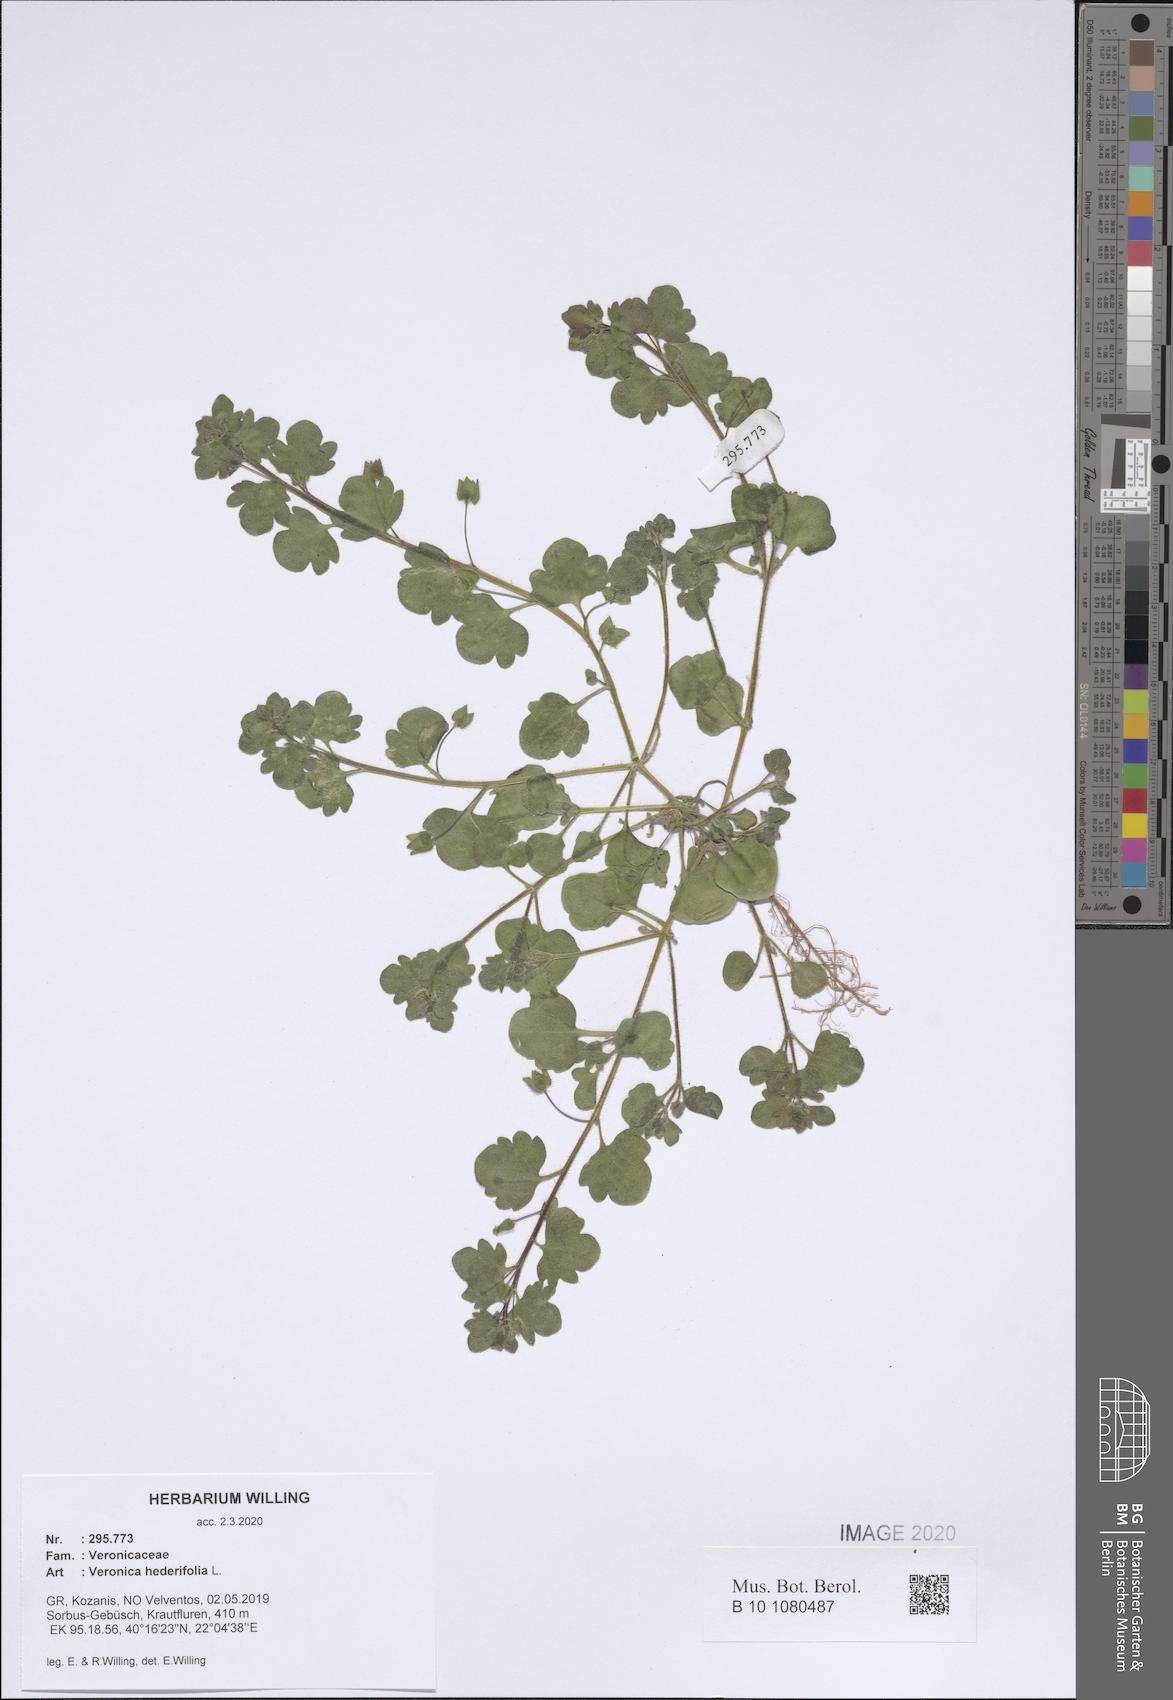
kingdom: Plantae
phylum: Tracheophyta
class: Magnoliopsida
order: Lamiales
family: Plantaginaceae
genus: Veronica
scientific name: Veronica hederifolia
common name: Ivy-leaved speedwell
